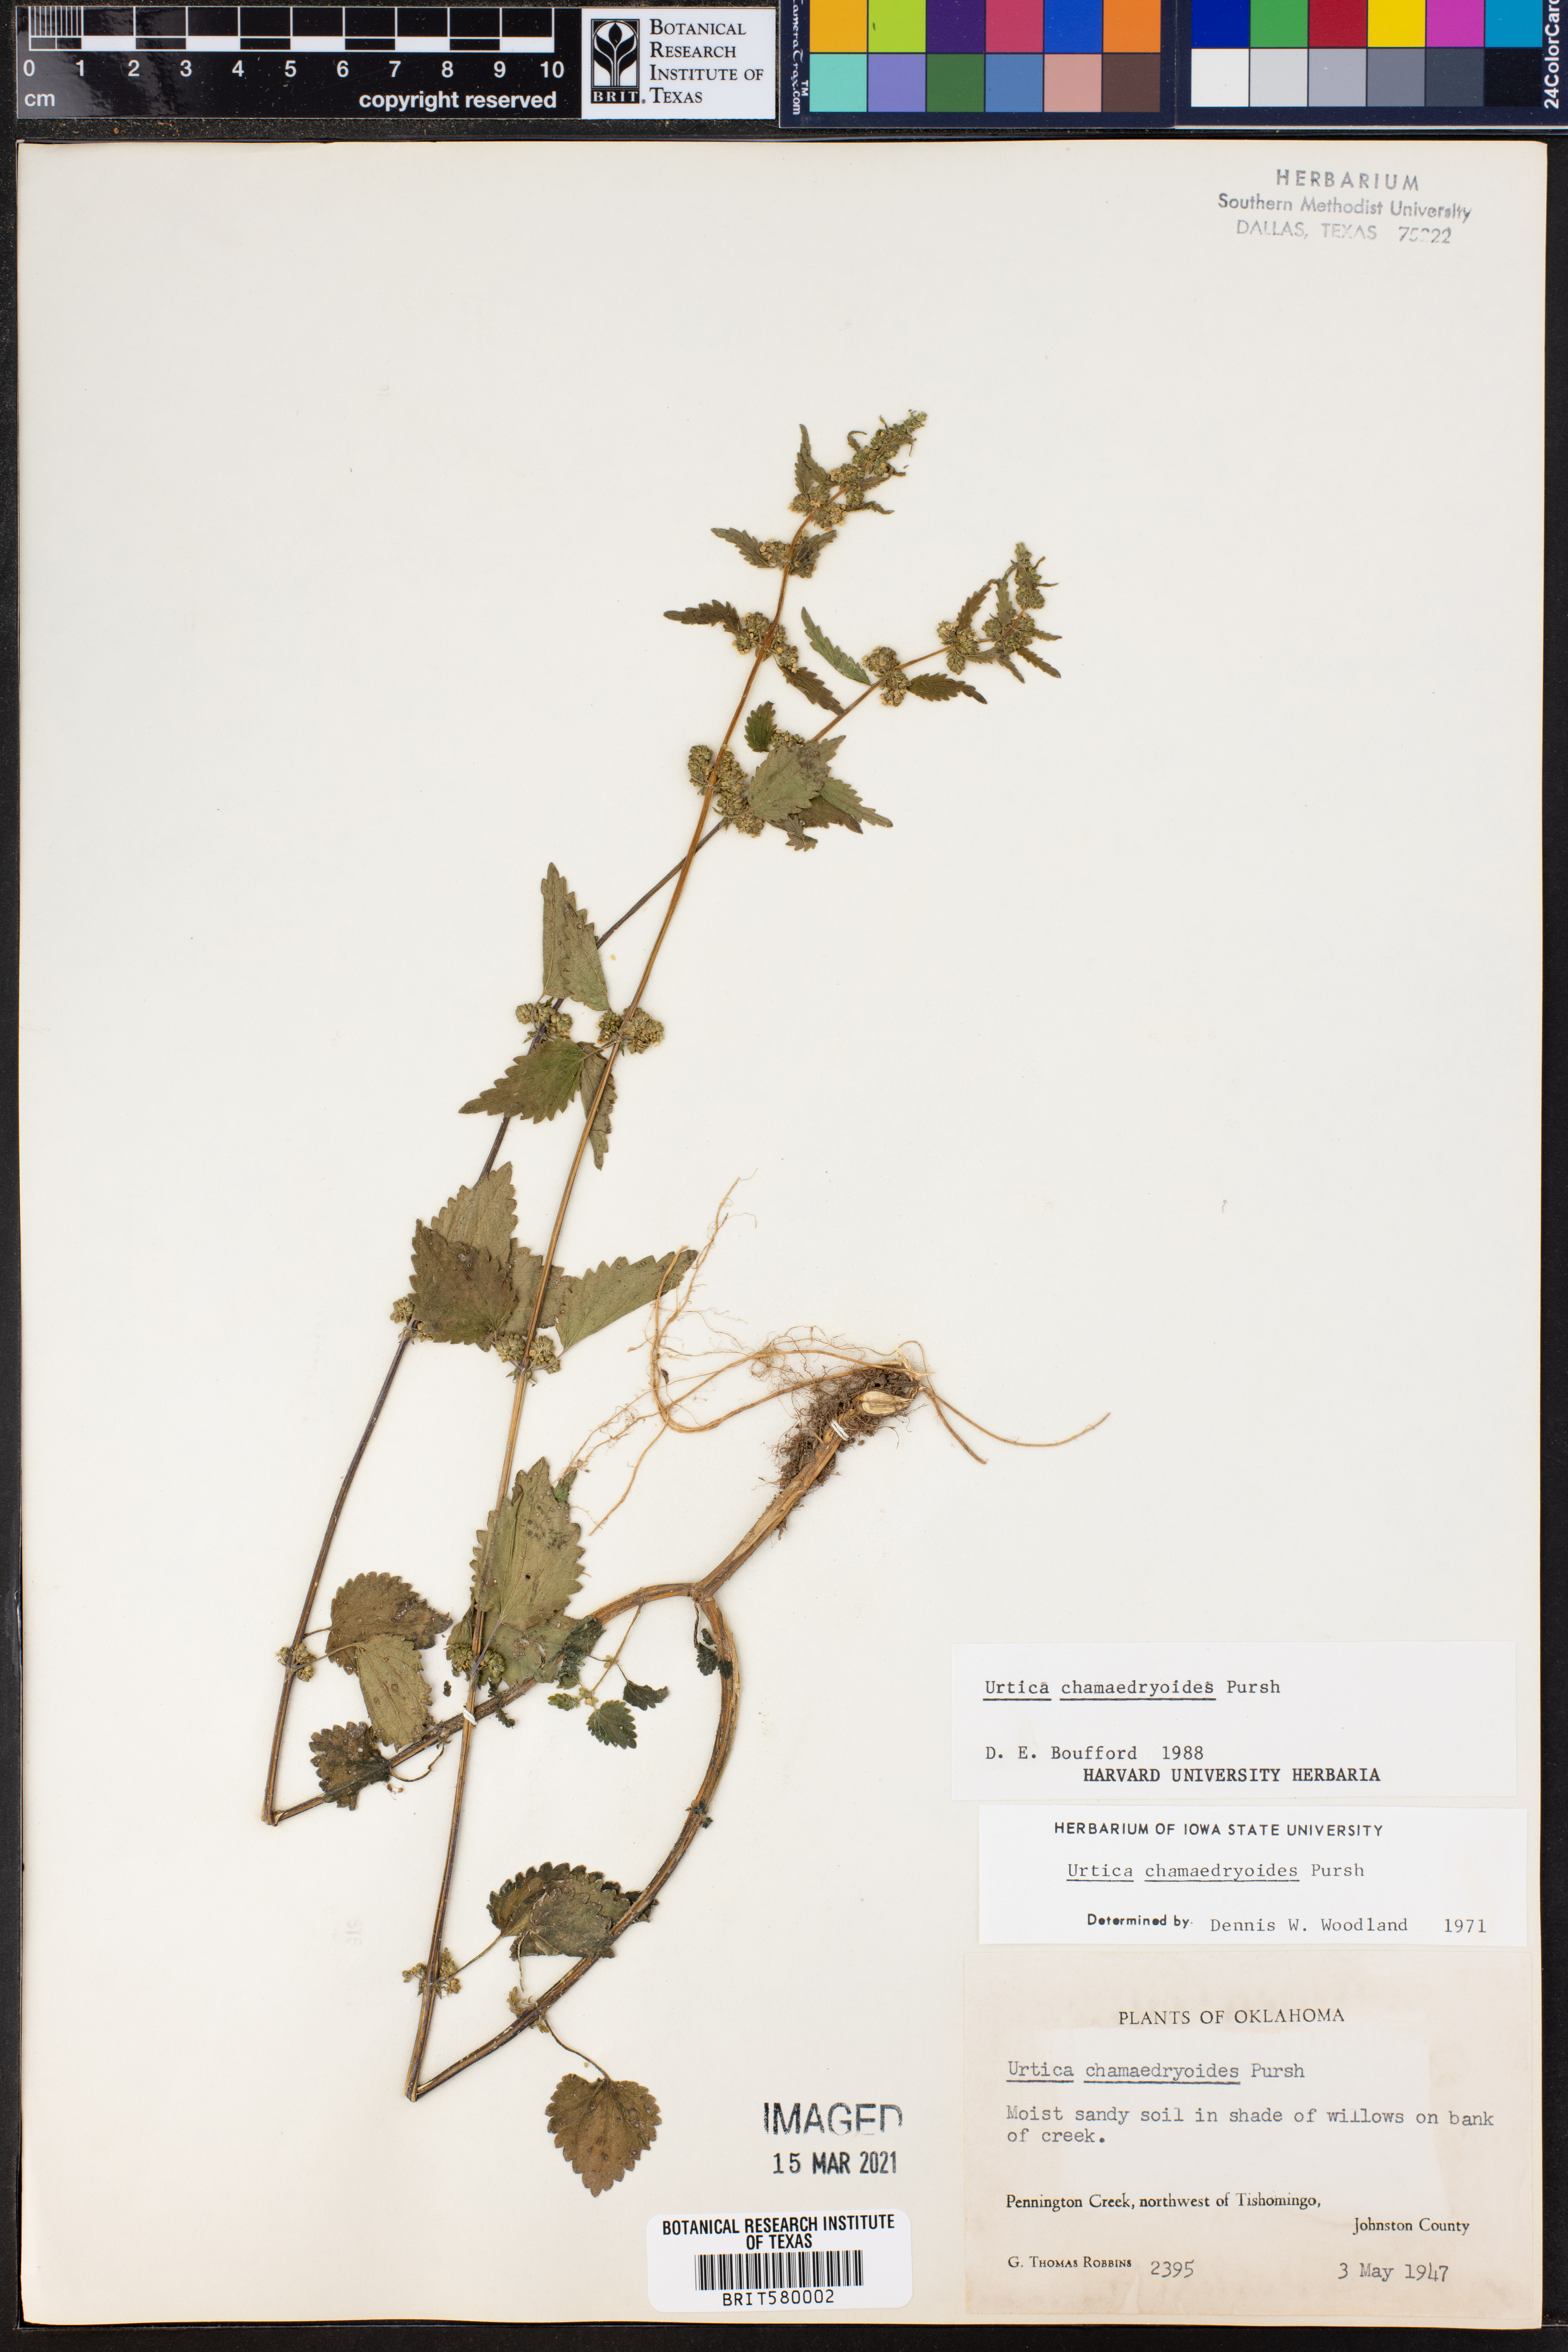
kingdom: Plantae
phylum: Tracheophyta
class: Magnoliopsida
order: Rosales
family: Urticaceae
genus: Urtica
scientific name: Urtica chamaedryoides
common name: Heart-leaf nettle
